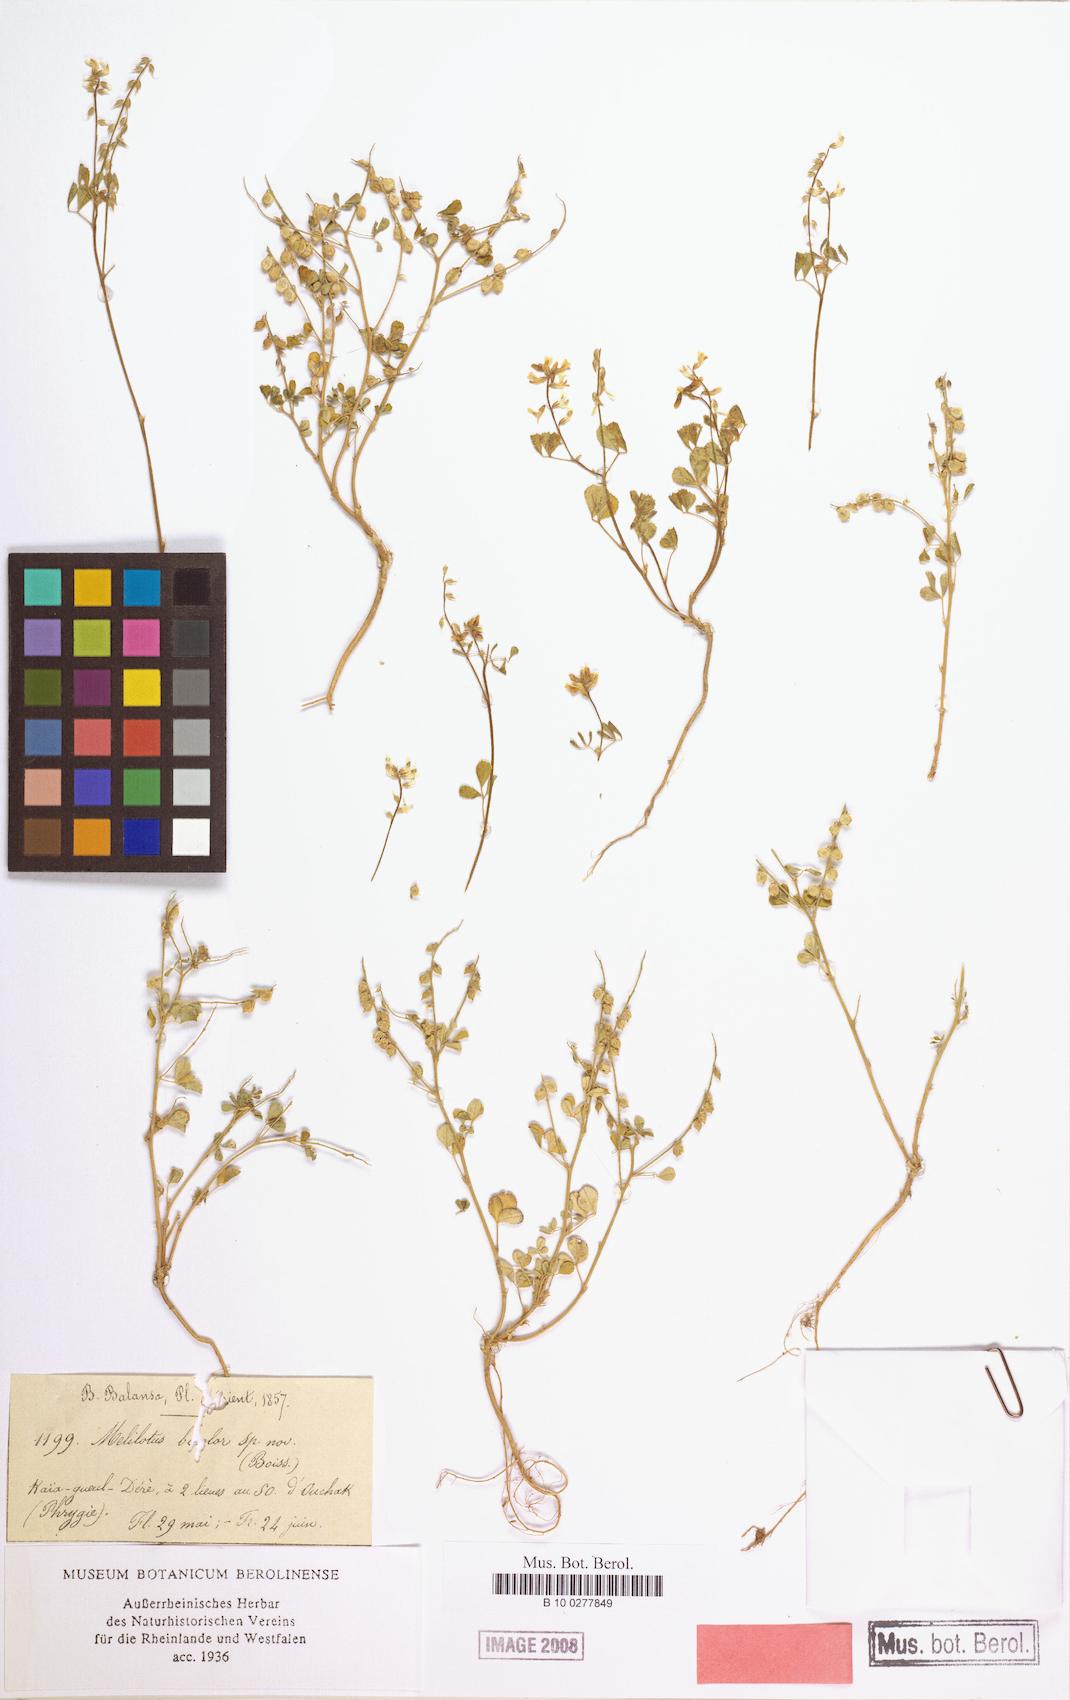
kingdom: Plantae
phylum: Tracheophyta
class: Magnoliopsida
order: Fabales
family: Fabaceae
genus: Melilotus
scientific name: Melilotus bicolor
